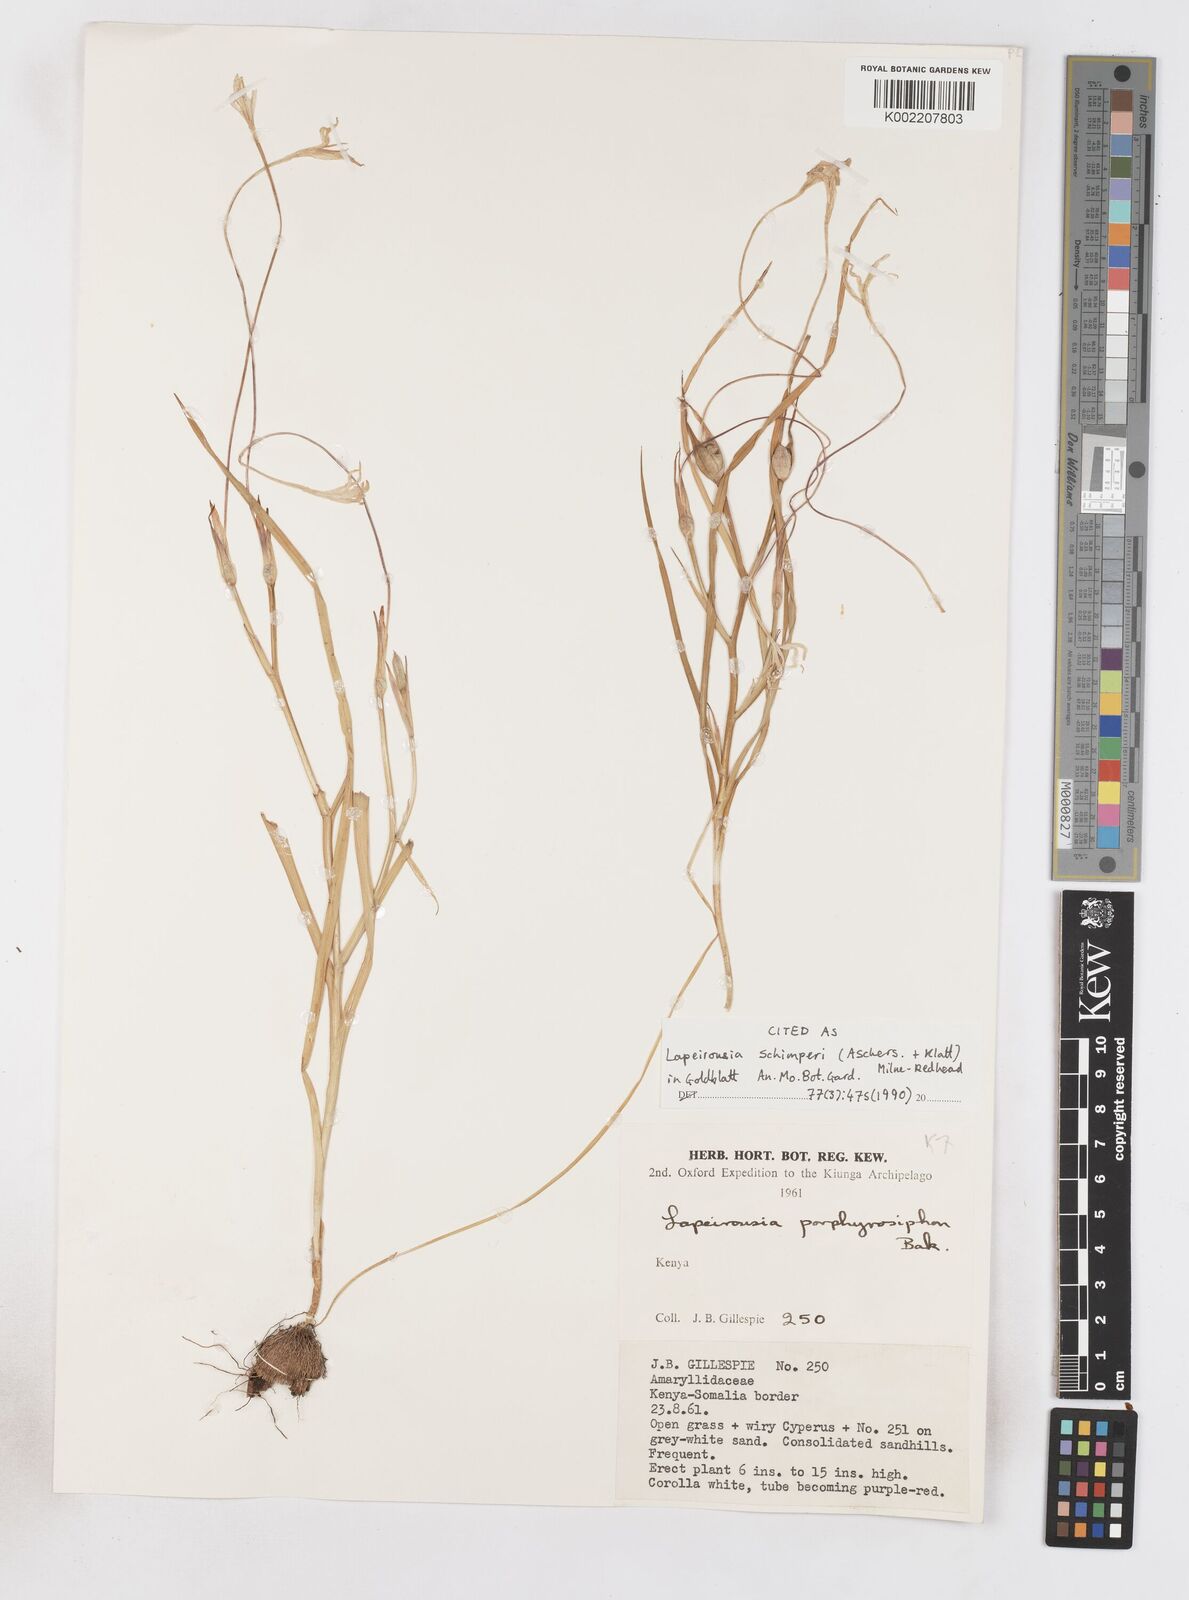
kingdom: Plantae
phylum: Tracheophyta
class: Liliopsida
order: Asparagales
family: Iridaceae
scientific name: Iridaceae
